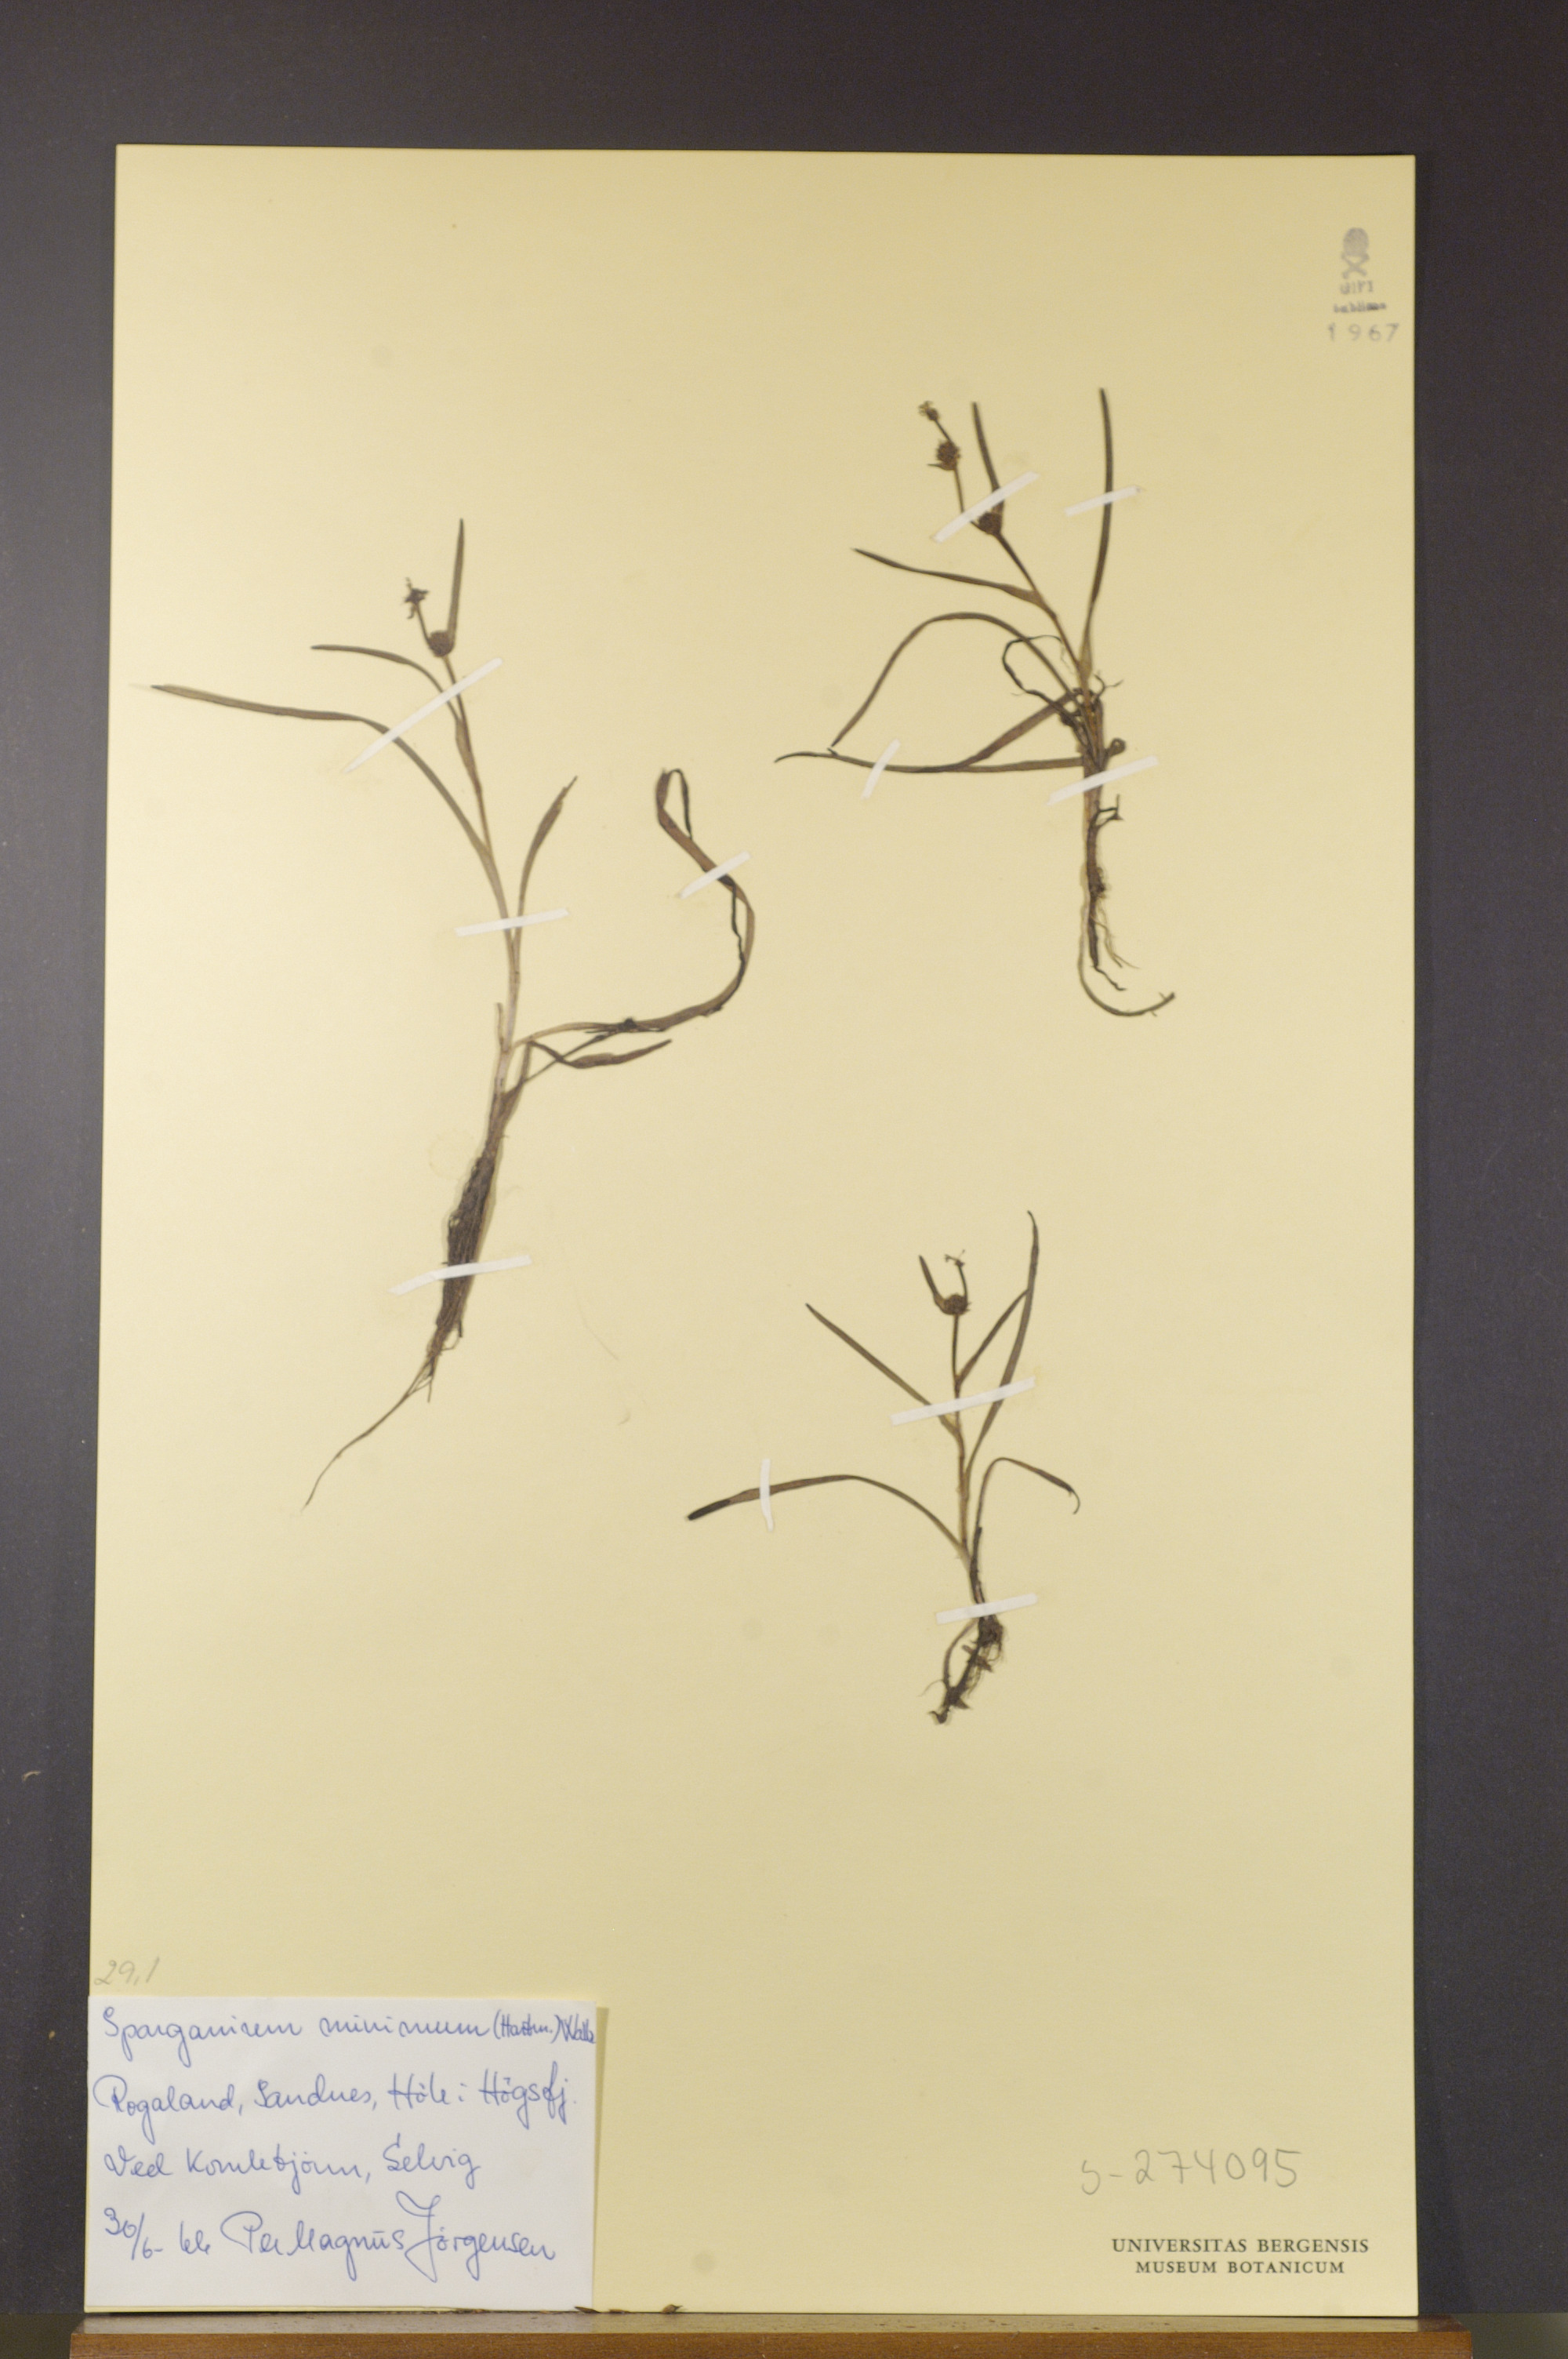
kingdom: Plantae
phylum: Tracheophyta
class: Liliopsida
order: Poales
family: Typhaceae
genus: Sparganium
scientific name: Sparganium natans
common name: Least bur-reed
